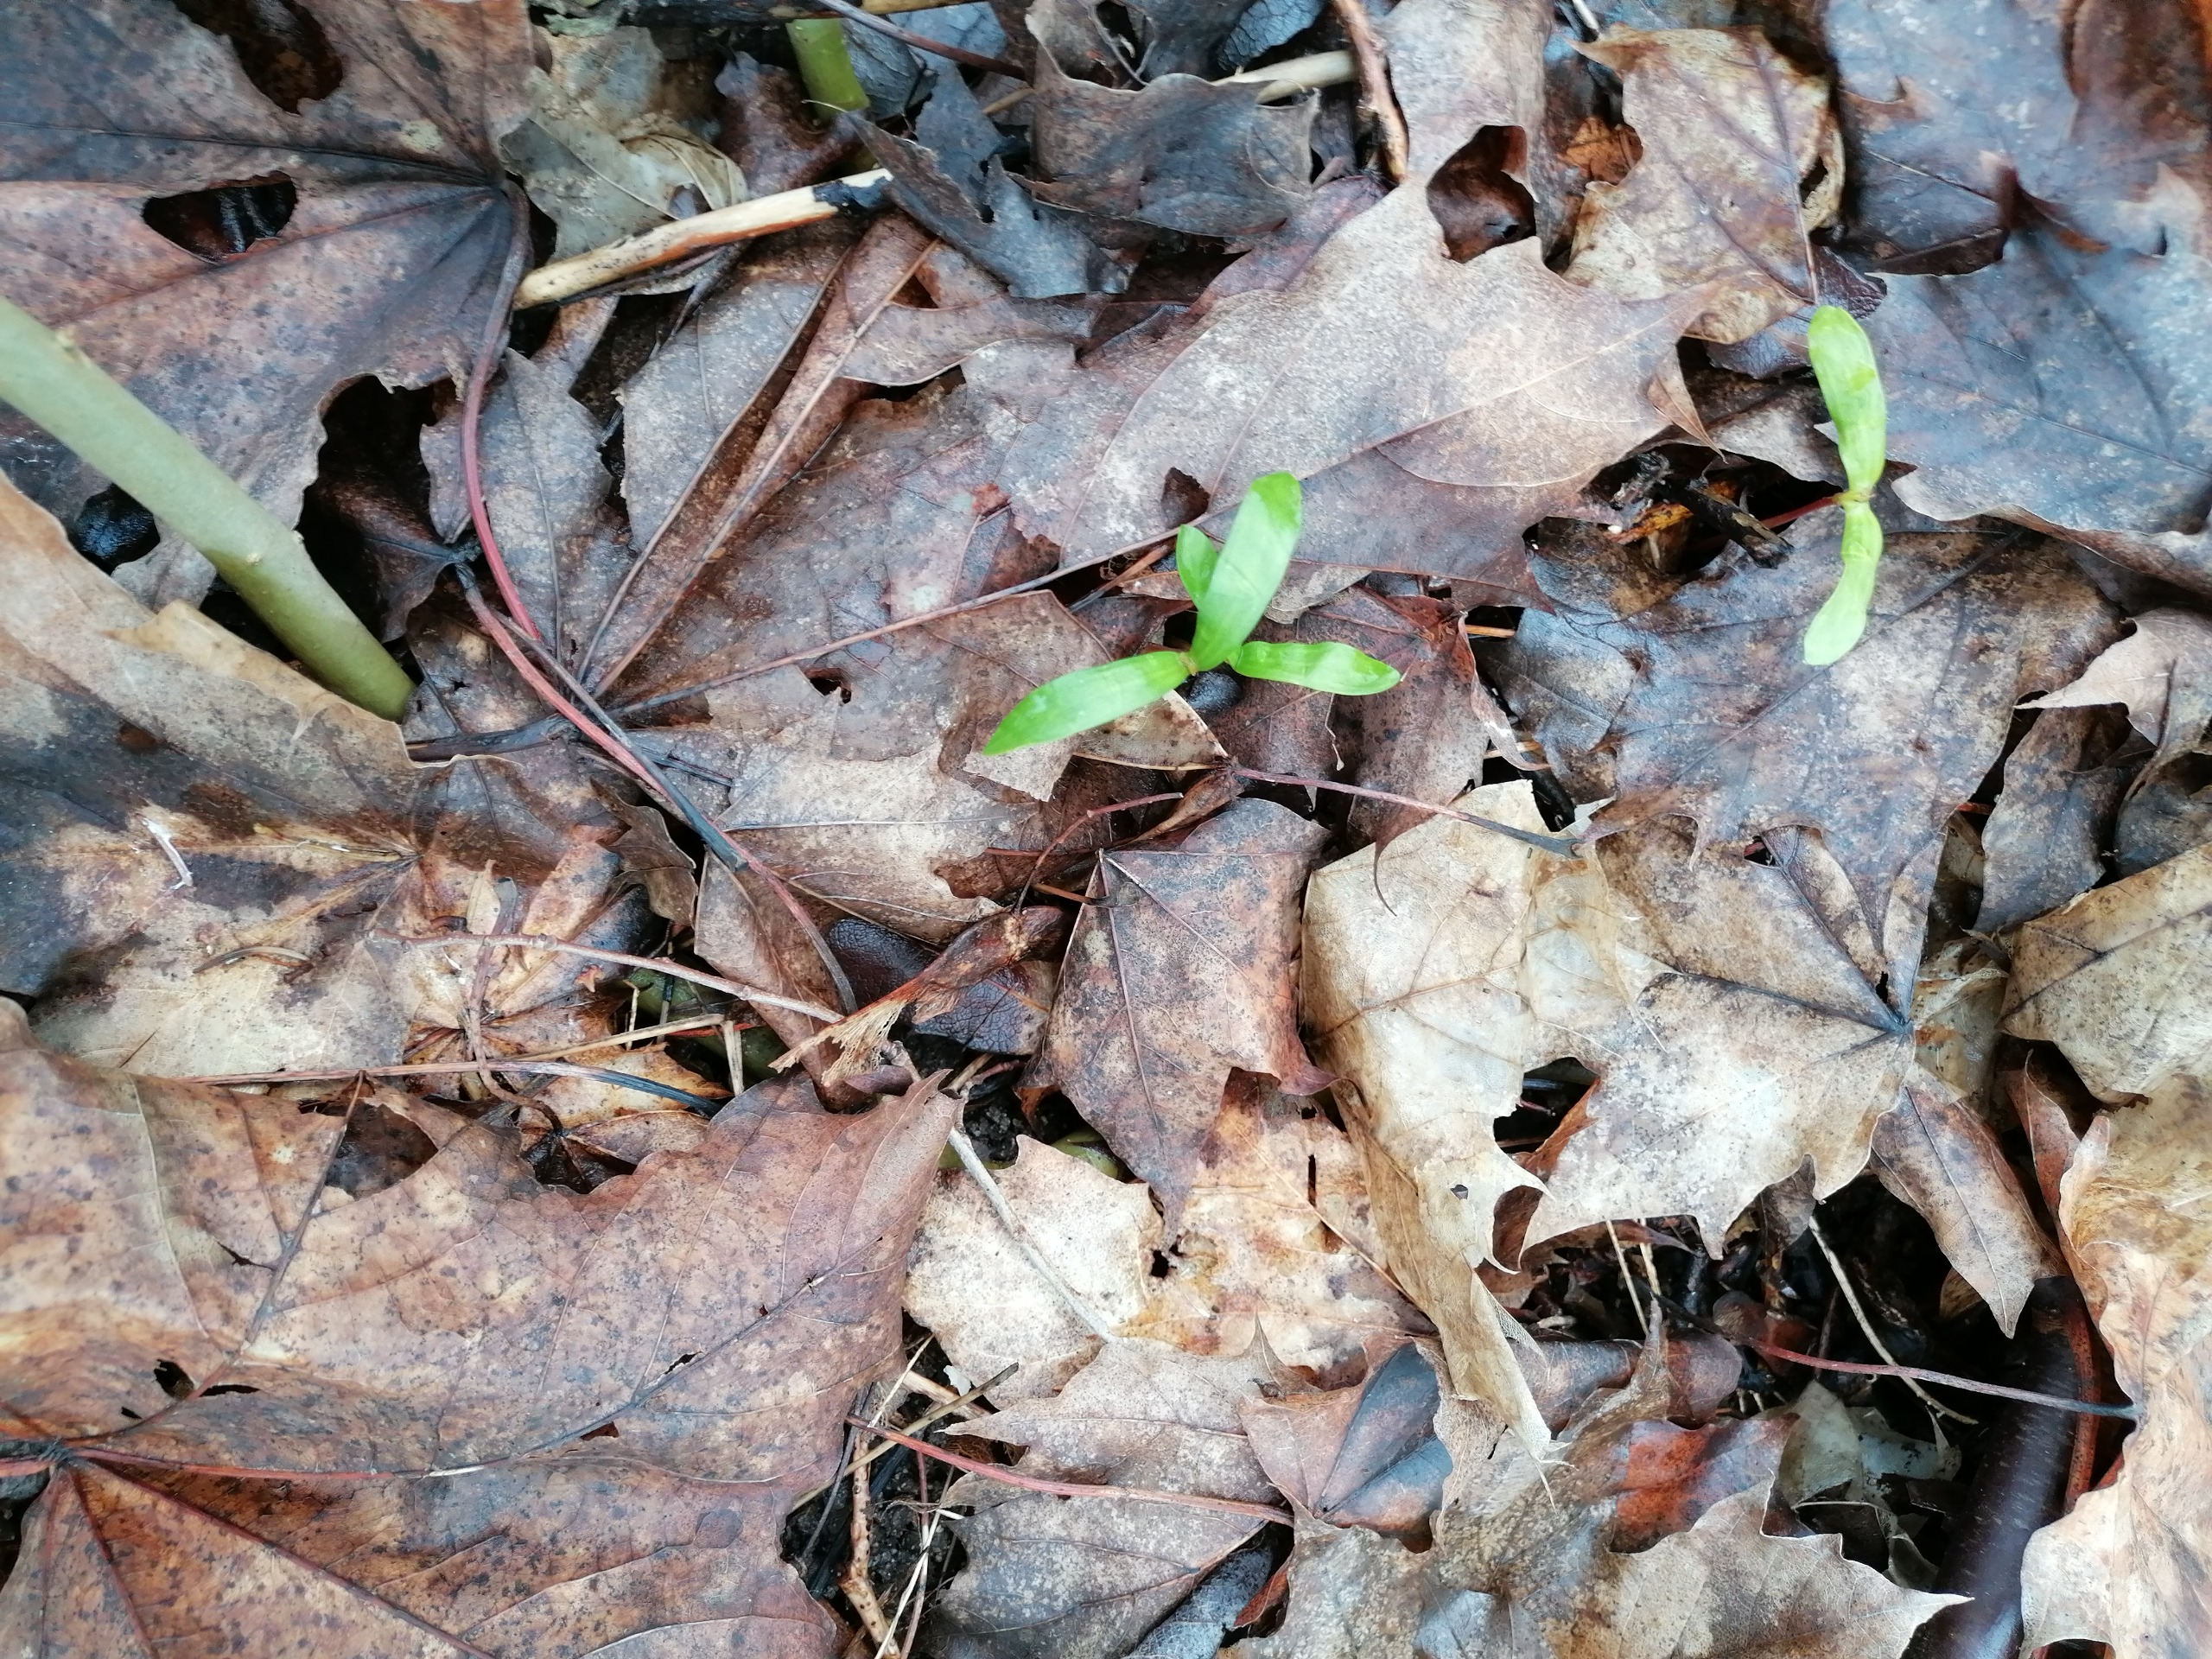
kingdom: Plantae
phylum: Tracheophyta
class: Magnoliopsida
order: Sapindales
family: Sapindaceae
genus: Acer
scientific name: Acer pseudoplatanus
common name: Ahorn
